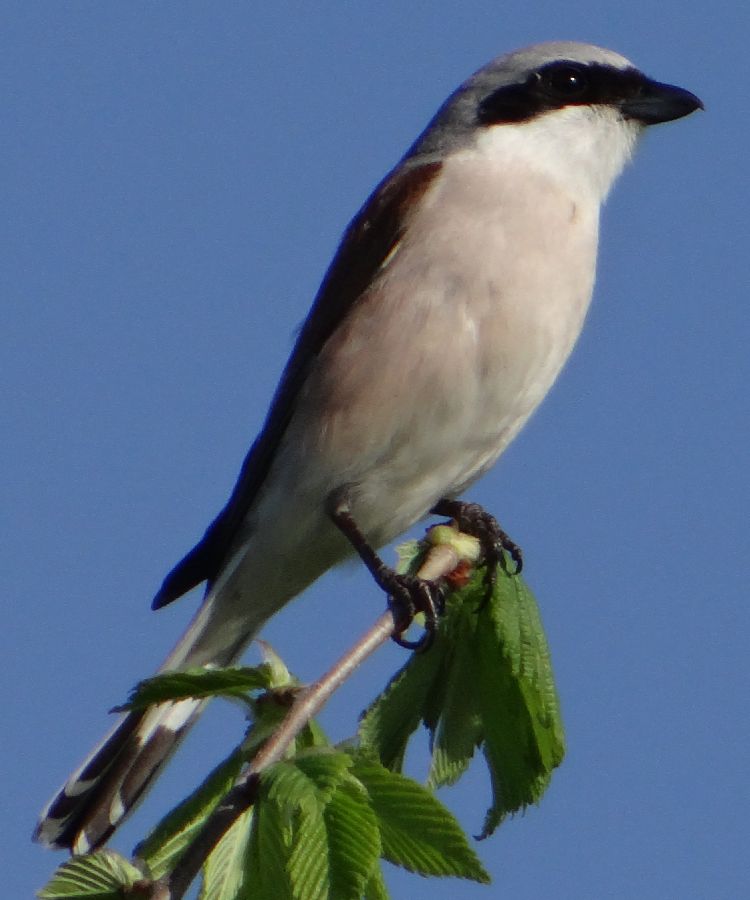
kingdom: Animalia
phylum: Chordata
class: Aves
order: Passeriformes
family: Laniidae
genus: Lanius
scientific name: Lanius collurio
